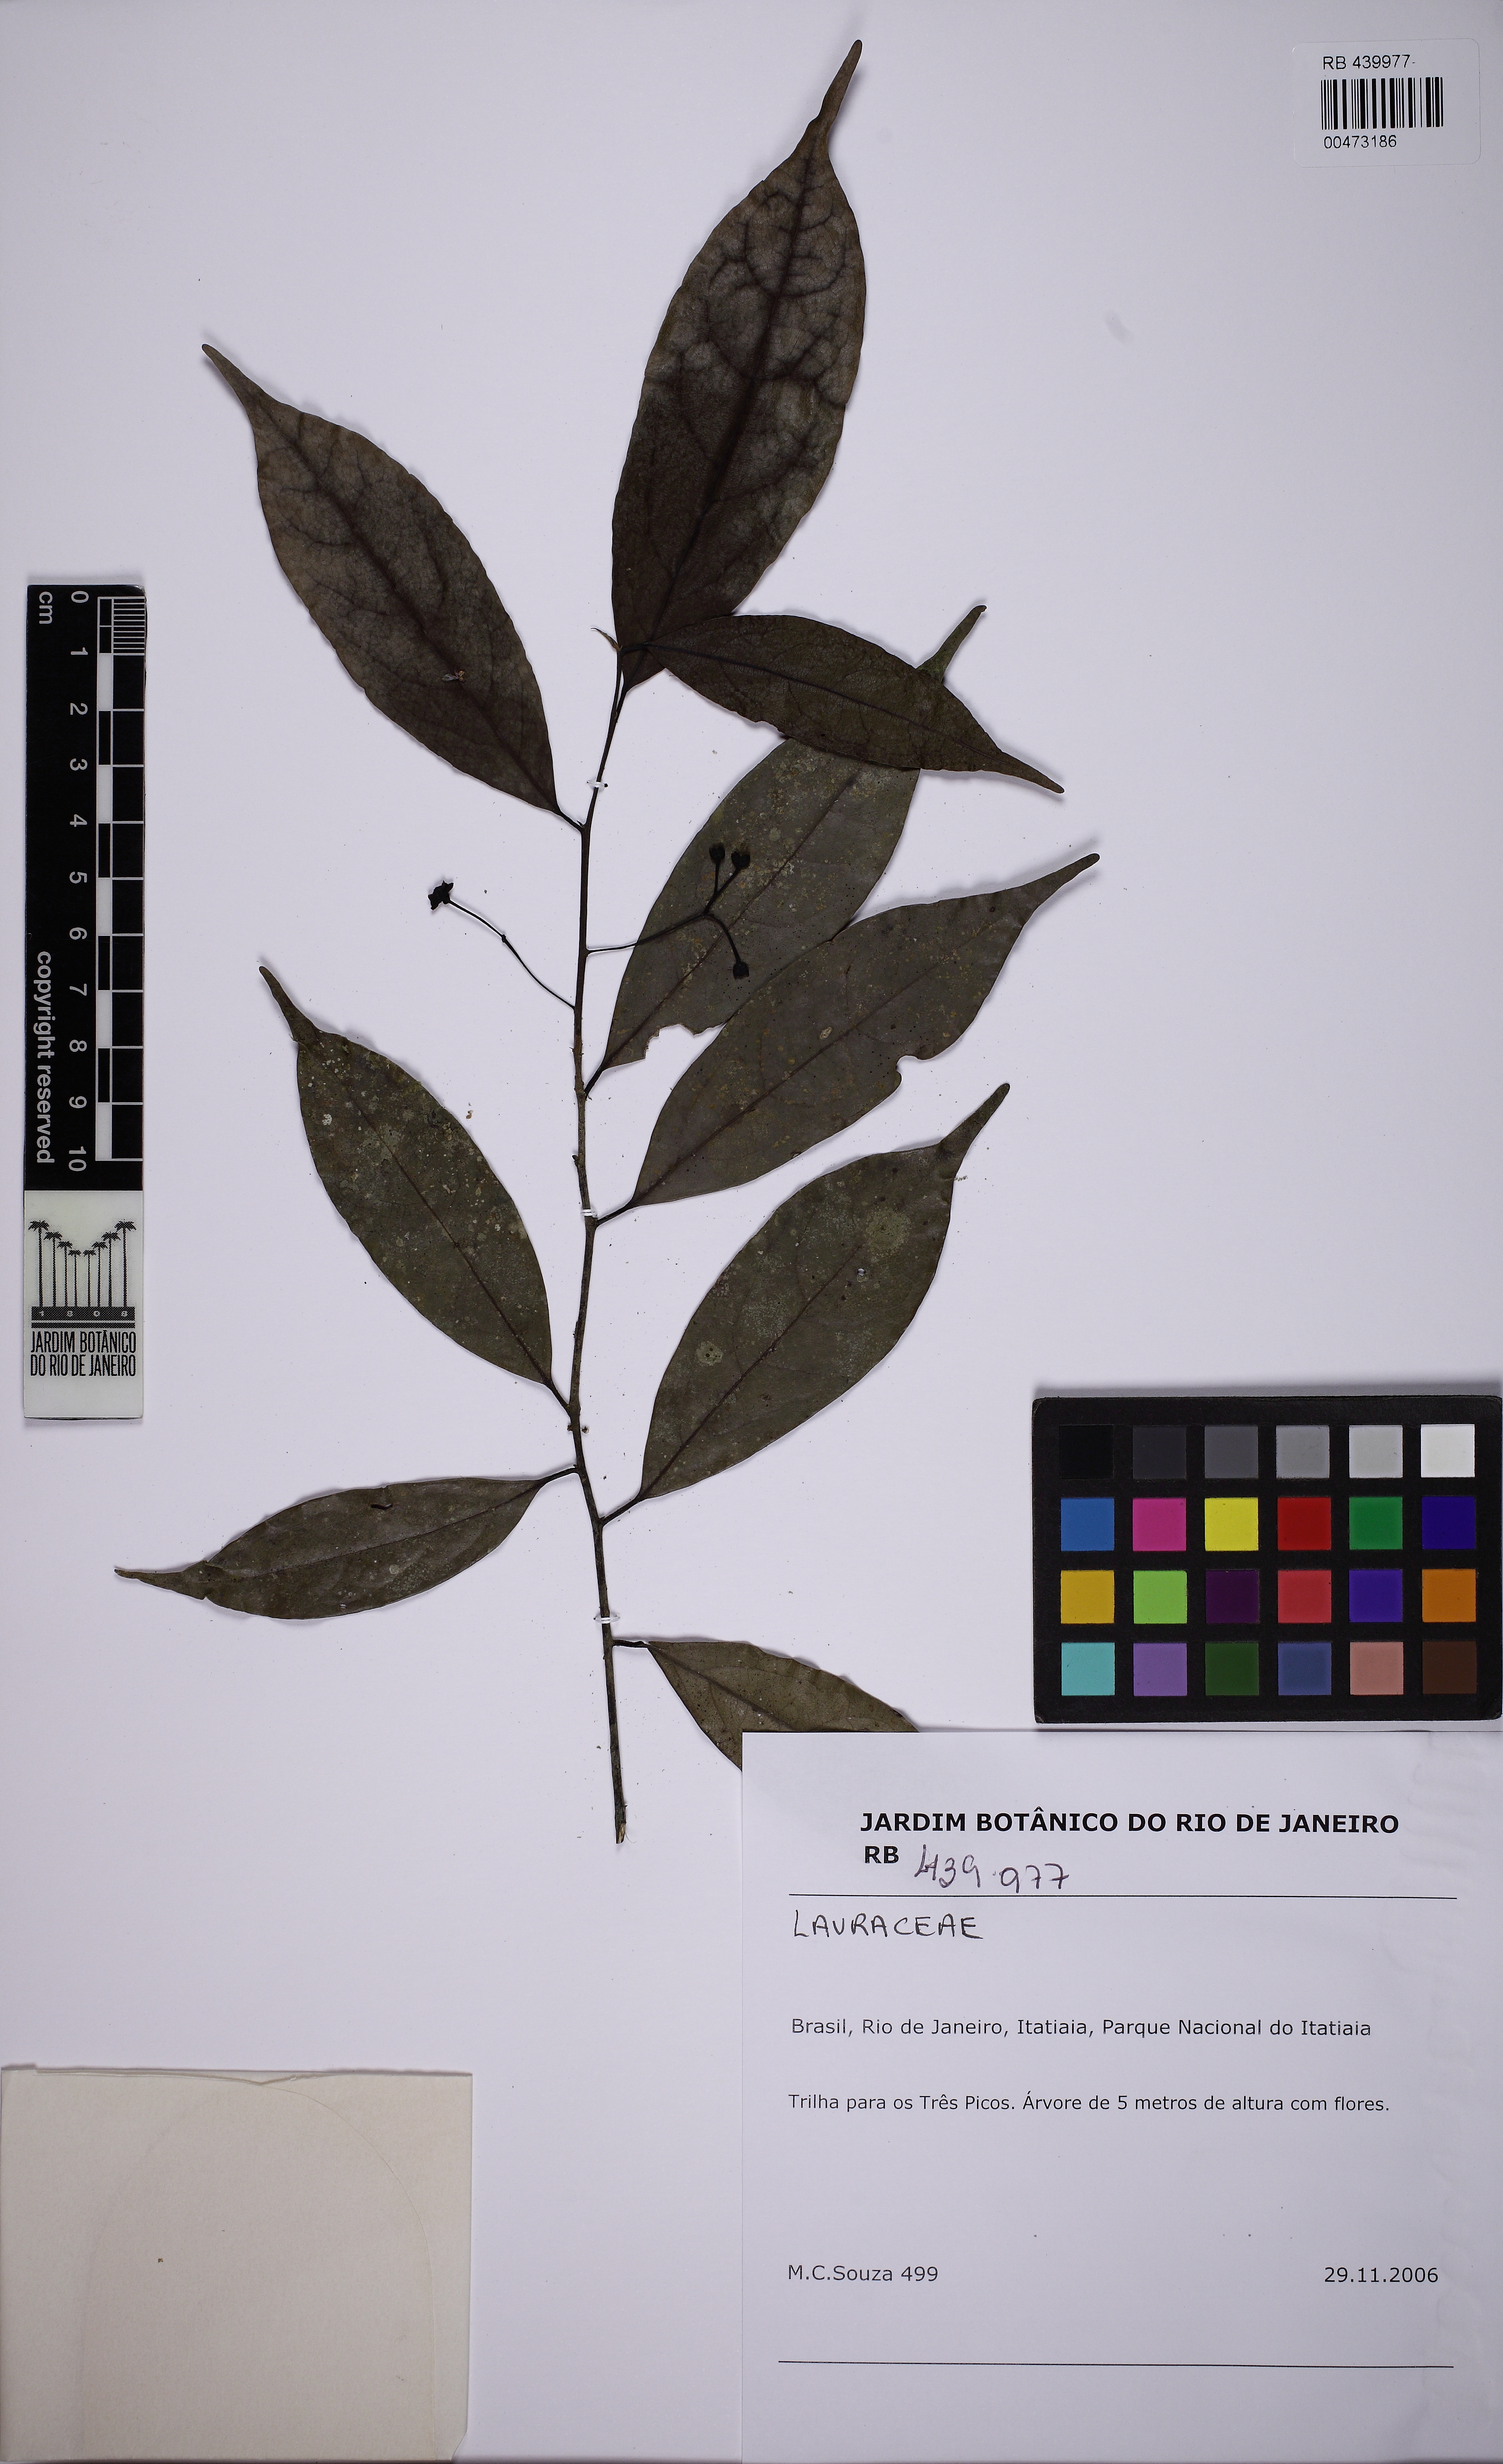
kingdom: Plantae
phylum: Tracheophyta
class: Magnoliopsida
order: Laurales
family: Lauraceae
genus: Phyllostemonodaphne
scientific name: Phyllostemonodaphne geminiflora
